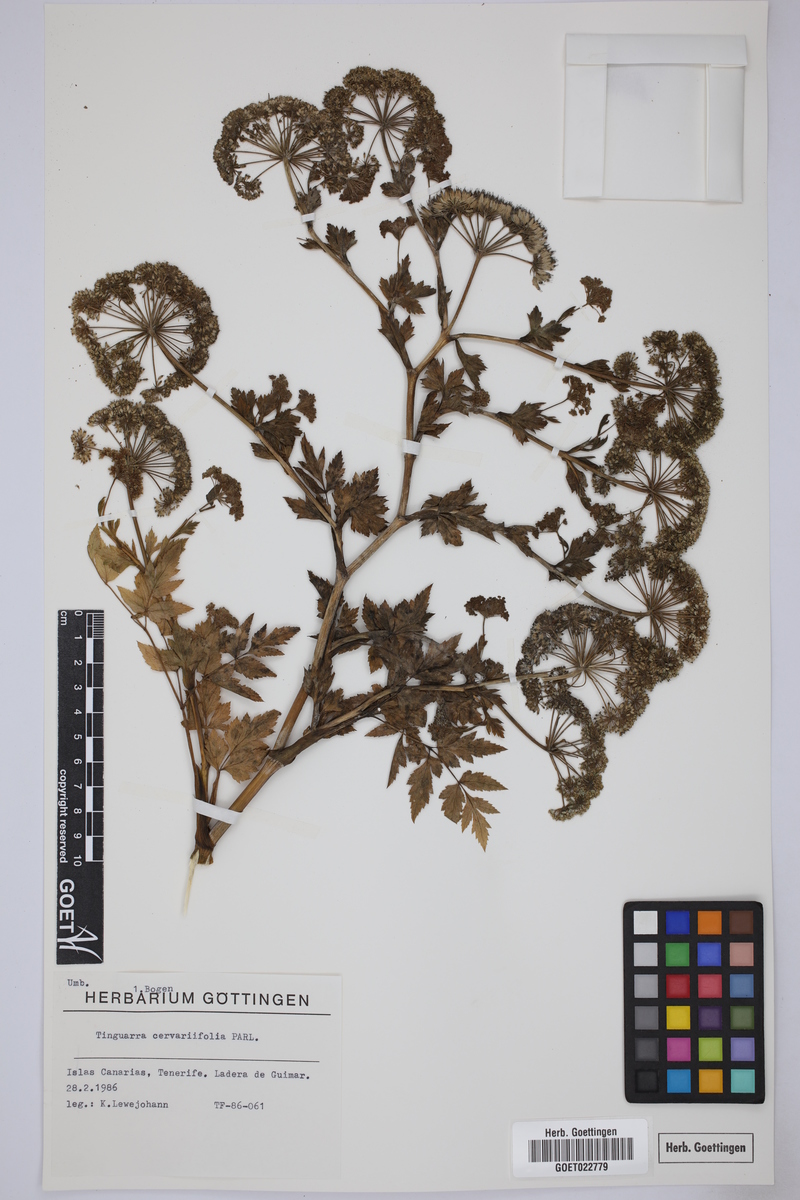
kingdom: Plantae
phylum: Tracheophyta
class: Magnoliopsida
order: Apiales
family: Apiaceae
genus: Athamanta
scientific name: Athamanta cervariifolia
